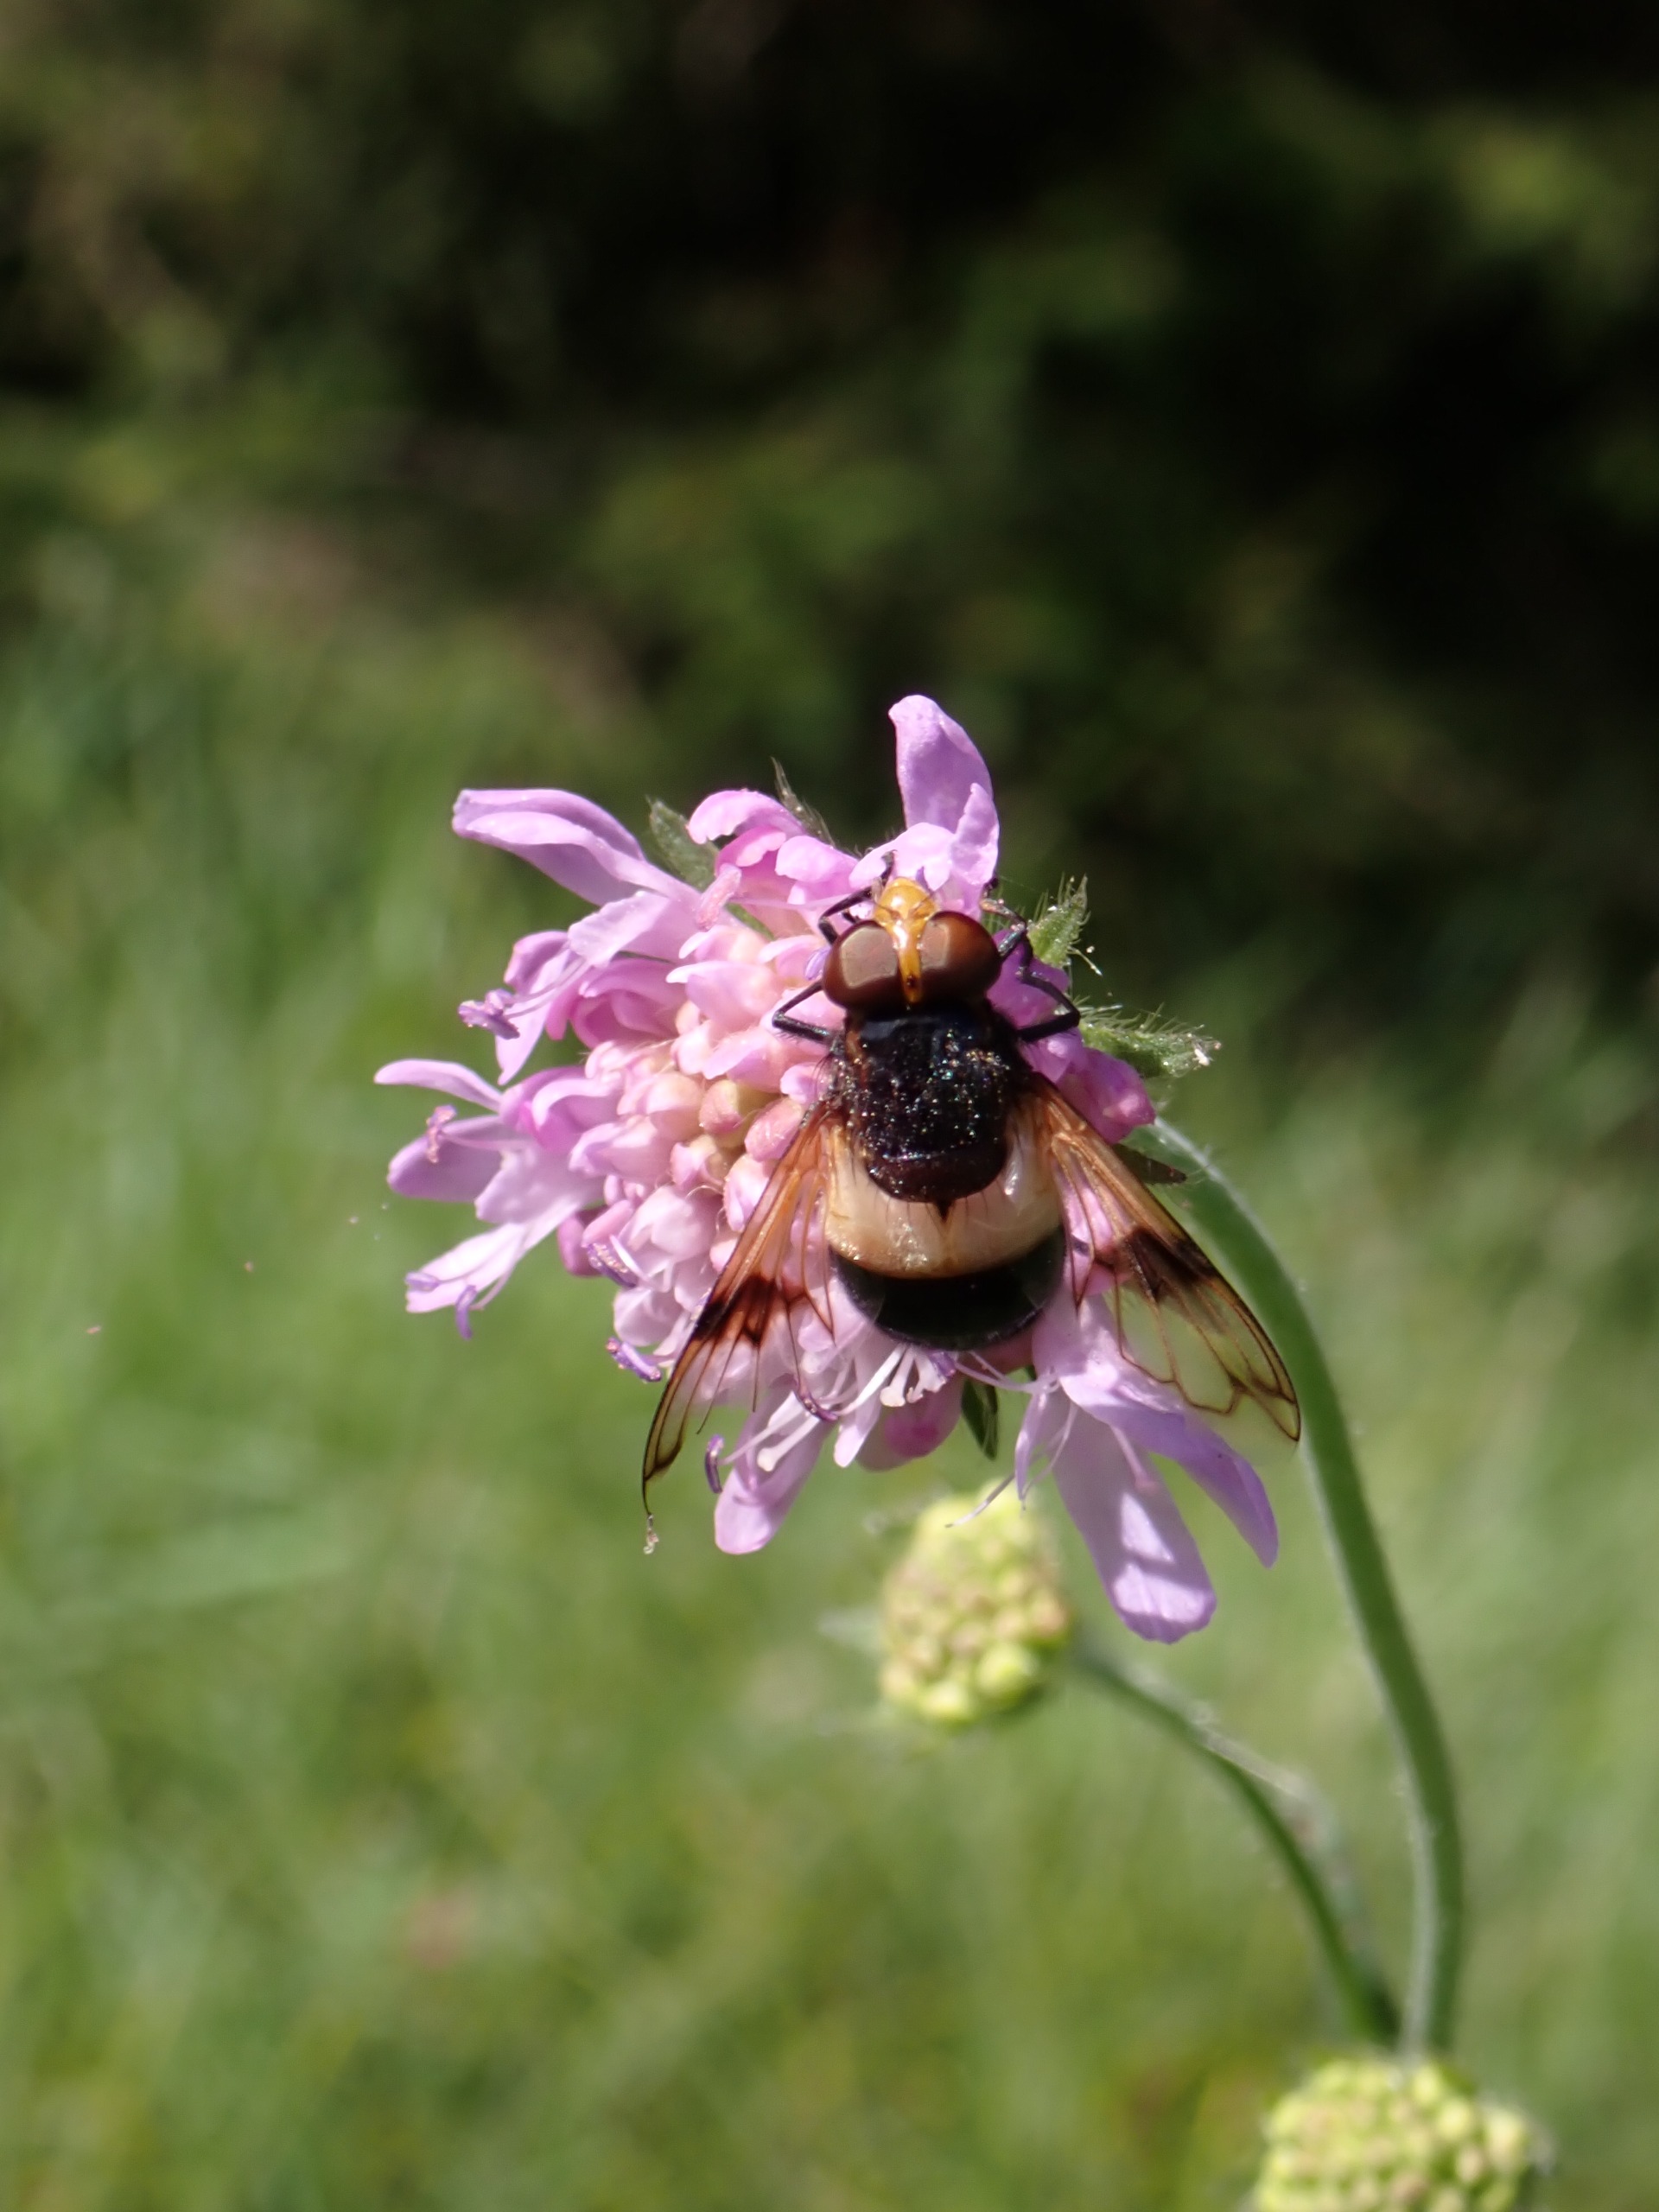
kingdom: Animalia
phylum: Arthropoda
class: Insecta
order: Diptera
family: Syrphidae
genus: Volucella
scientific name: Volucella pellucens
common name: Hvidbåndet humlesvirreflue
